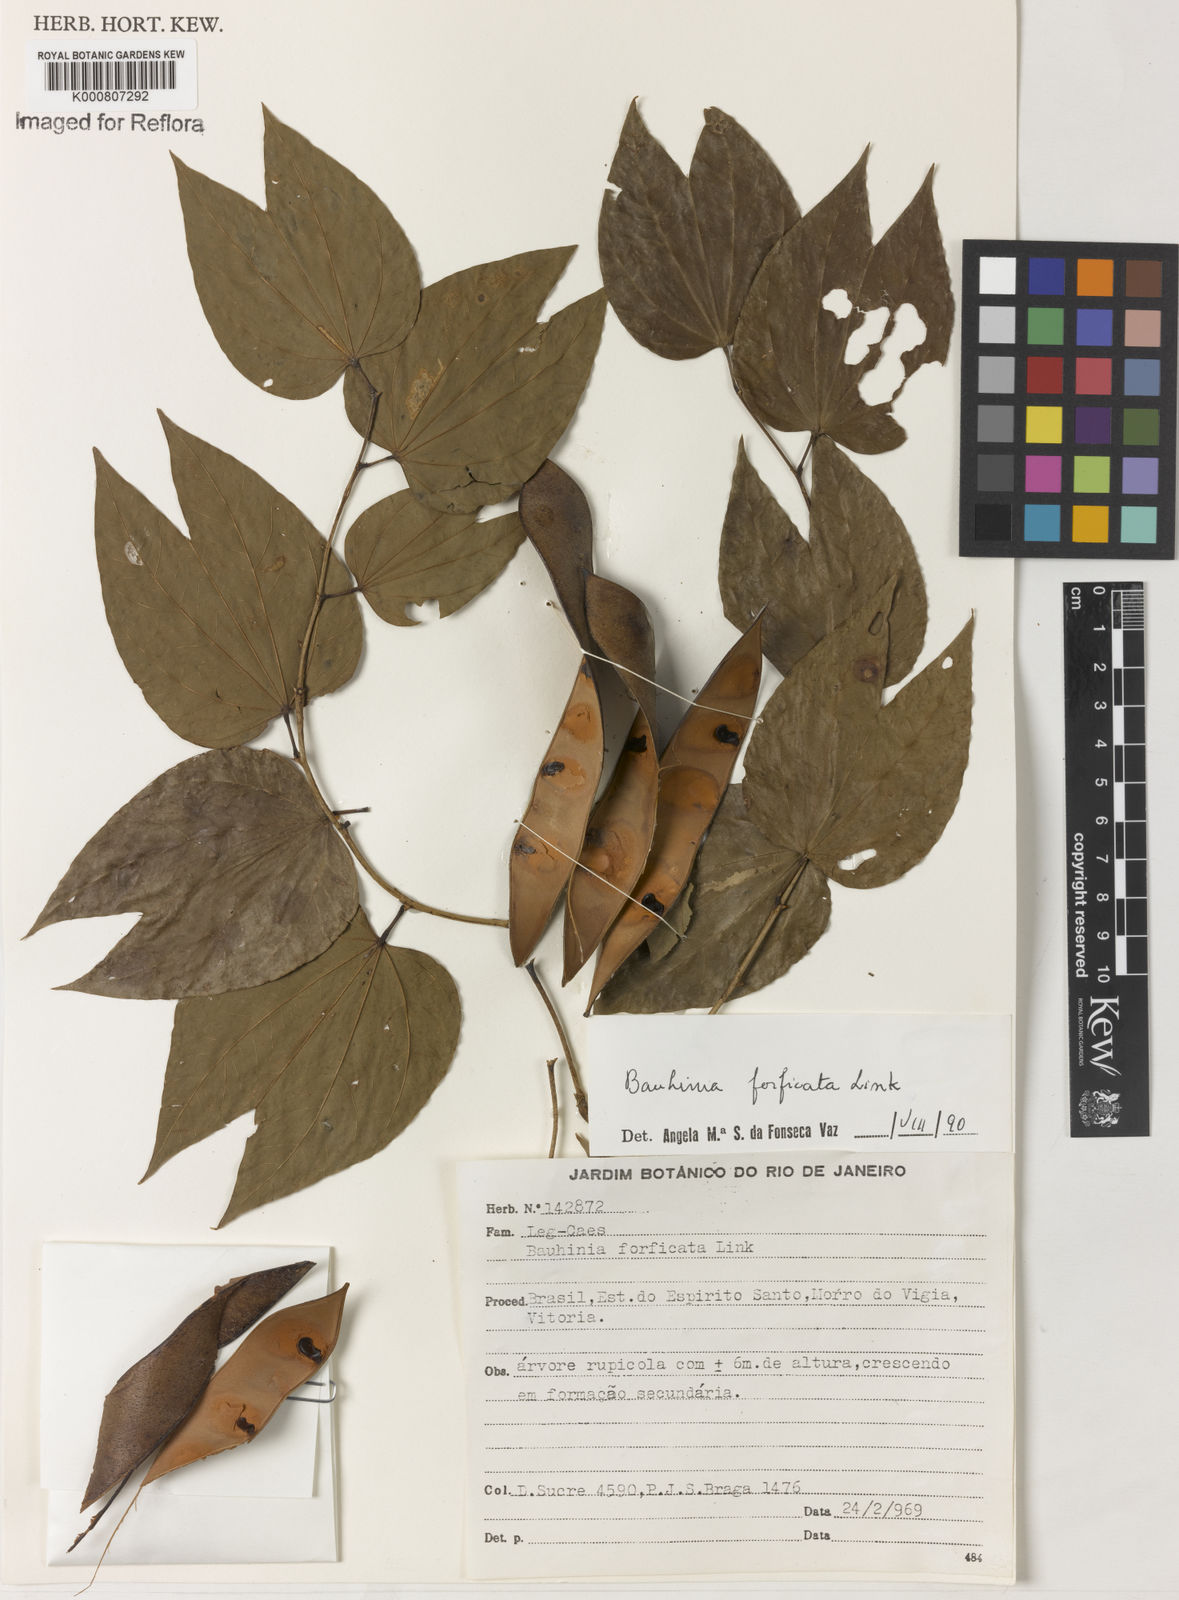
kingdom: Plantae
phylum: Tracheophyta
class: Magnoliopsida
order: Fabales
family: Fabaceae
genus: Bauhinia
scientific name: Bauhinia forficata
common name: Orchid tree
